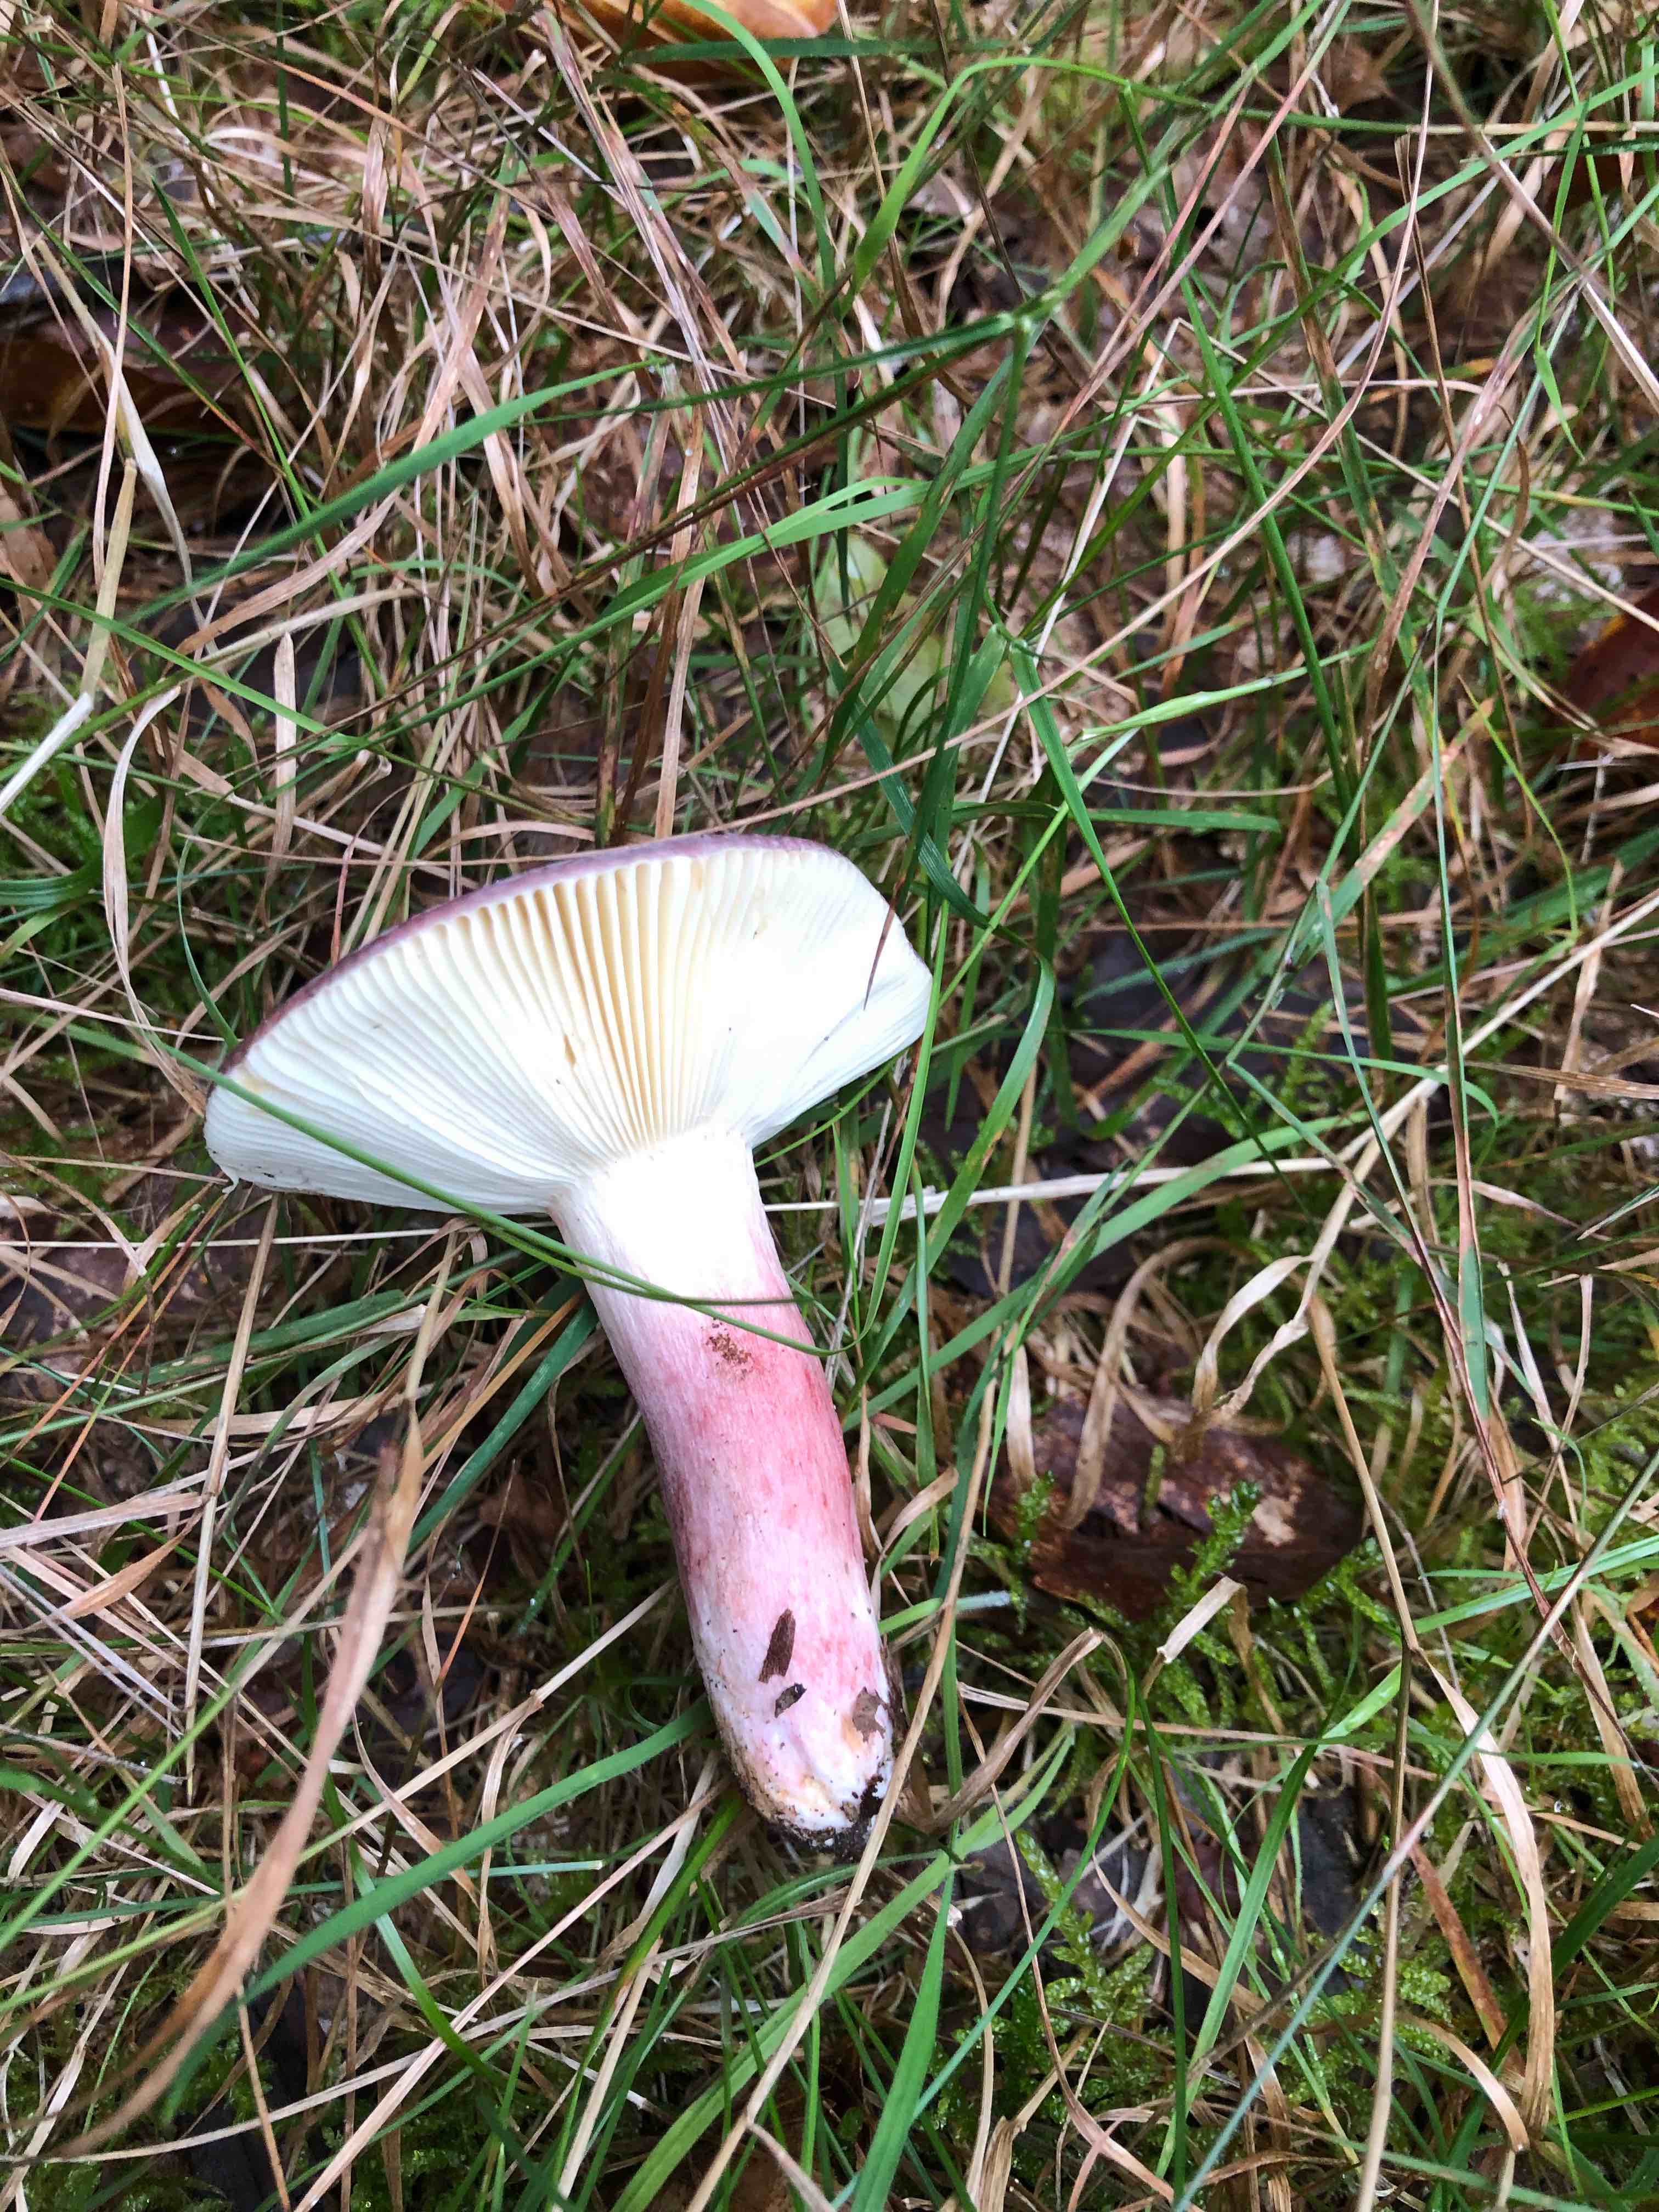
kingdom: Fungi
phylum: Basidiomycota
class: Agaricomycetes
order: Russulales
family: Russulaceae
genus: Russula
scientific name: Russula
